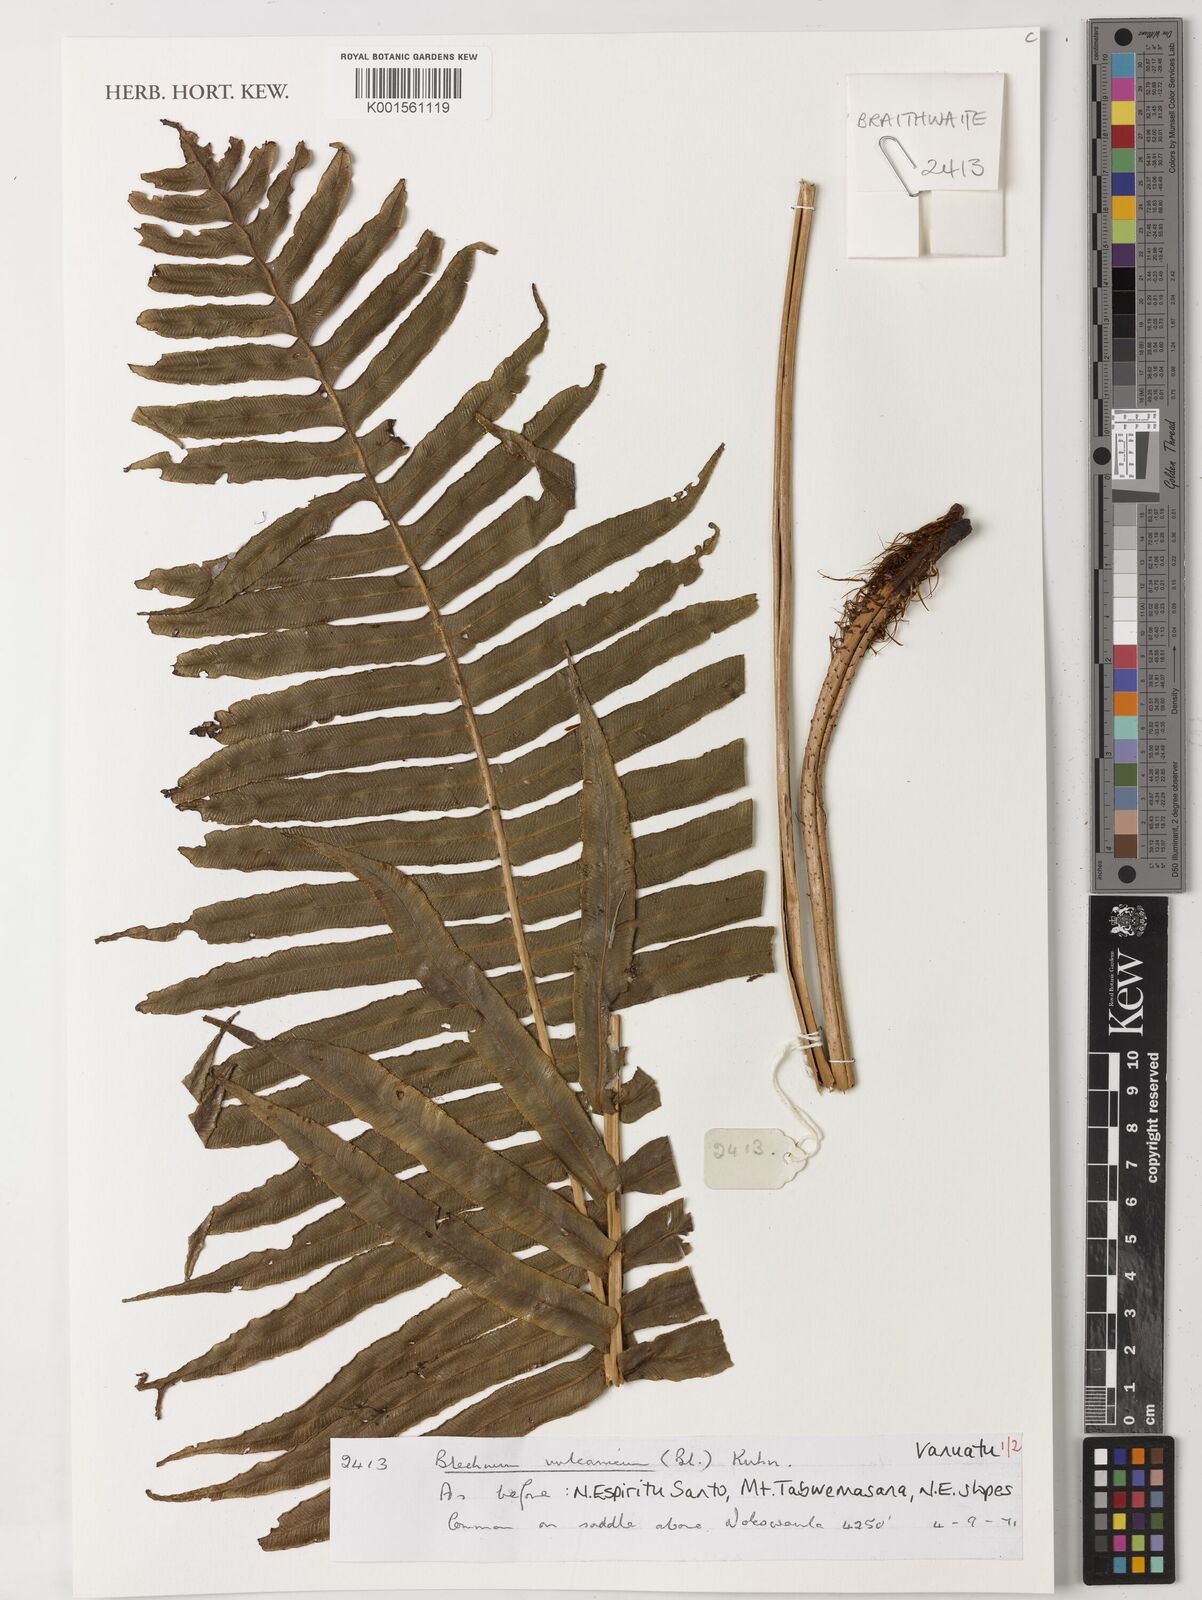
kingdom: Plantae
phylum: Tracheophyta
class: Polypodiopsida
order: Polypodiales
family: Blechnaceae
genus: Cranfillia
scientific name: Cranfillia vulcanica
